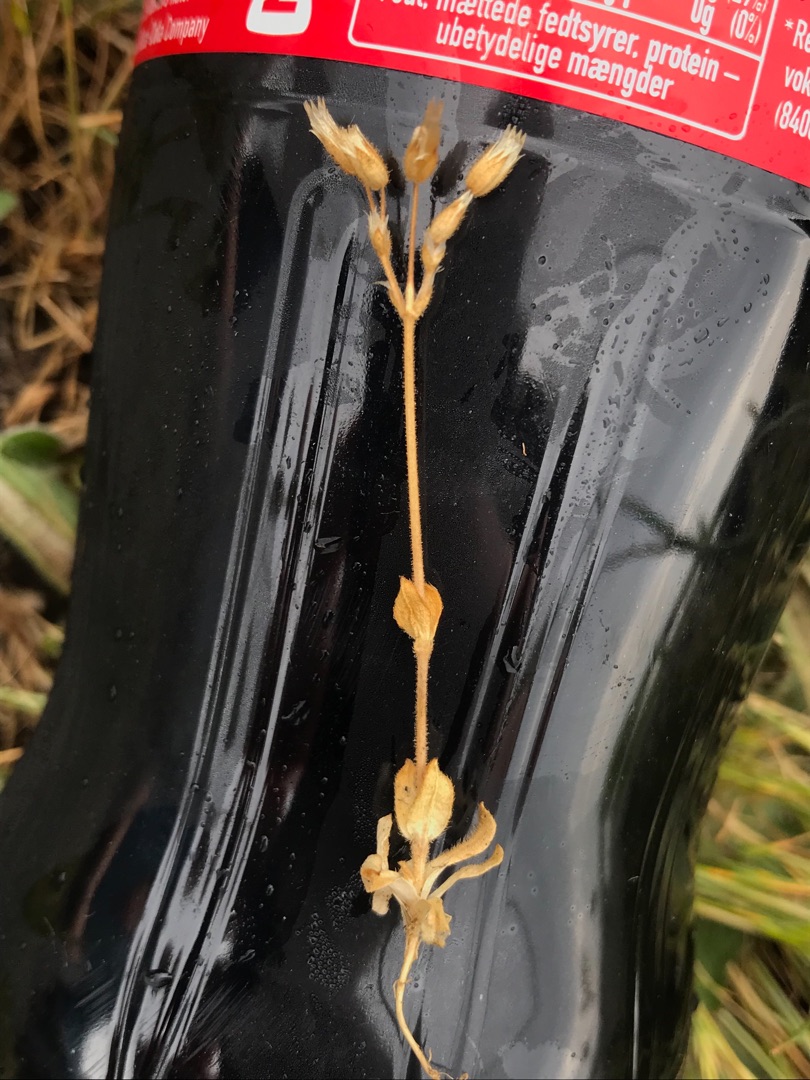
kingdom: Plantae
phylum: Tracheophyta
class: Magnoliopsida
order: Caryophyllales
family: Caryophyllaceae
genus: Cerastium
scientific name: Cerastium semidecandrum
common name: Femhannet hønsetarm
